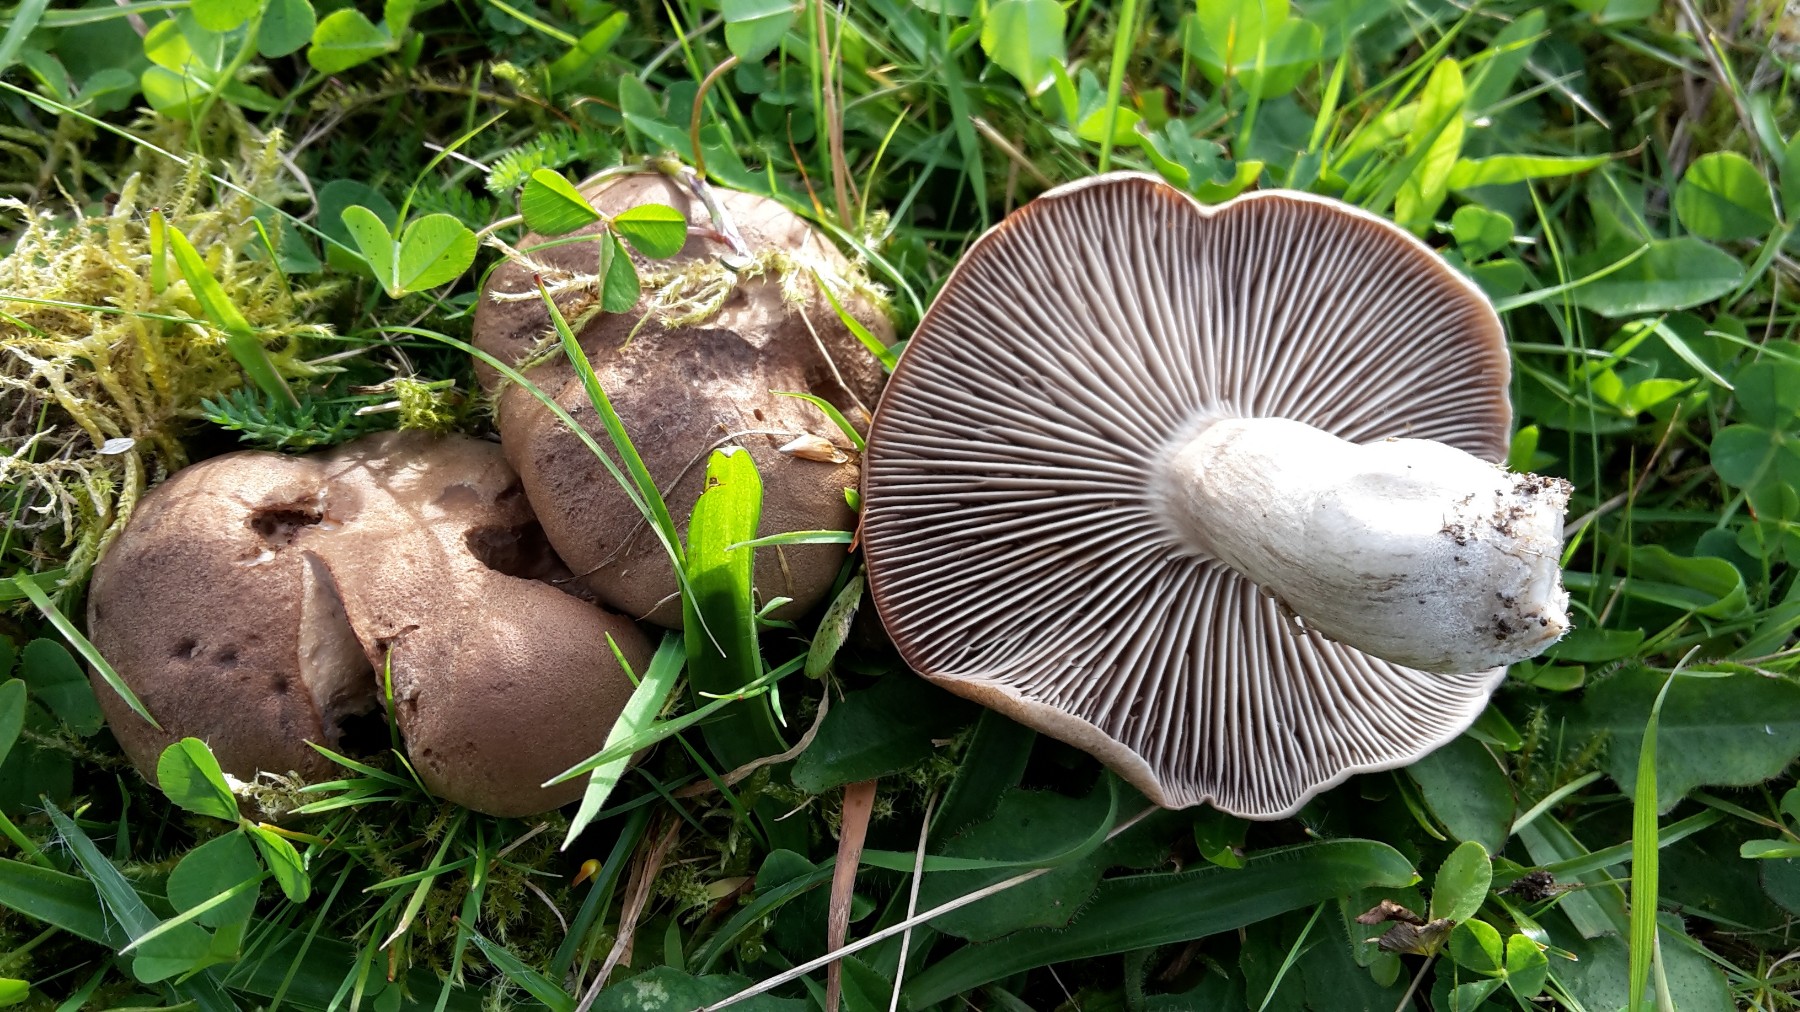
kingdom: Fungi
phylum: Basidiomycota
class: Agaricomycetes
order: Agaricales
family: Tricholomataceae
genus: Pseudotricholoma
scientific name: Pseudotricholoma metapodium
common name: rødmende alfehat
